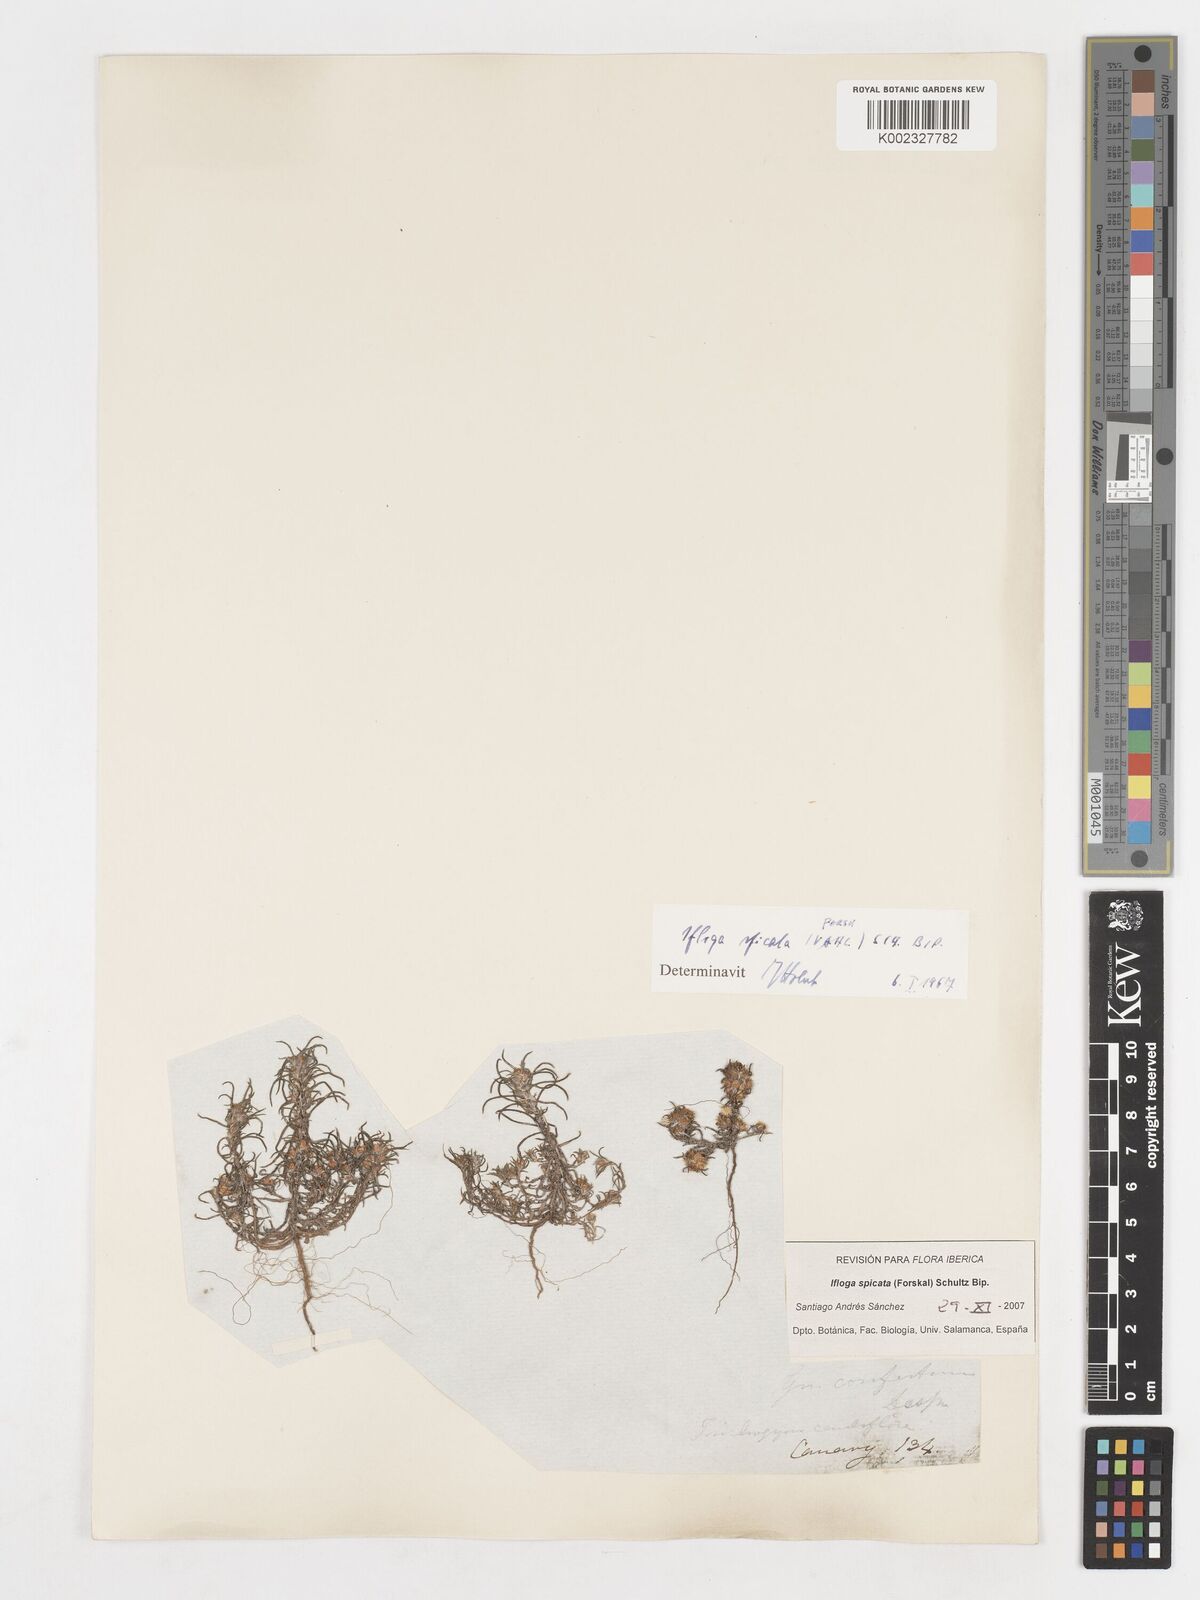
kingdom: Plantae
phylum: Tracheophyta
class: Magnoliopsida
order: Asterales
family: Asteraceae
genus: Ifloga
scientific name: Ifloga spicata
